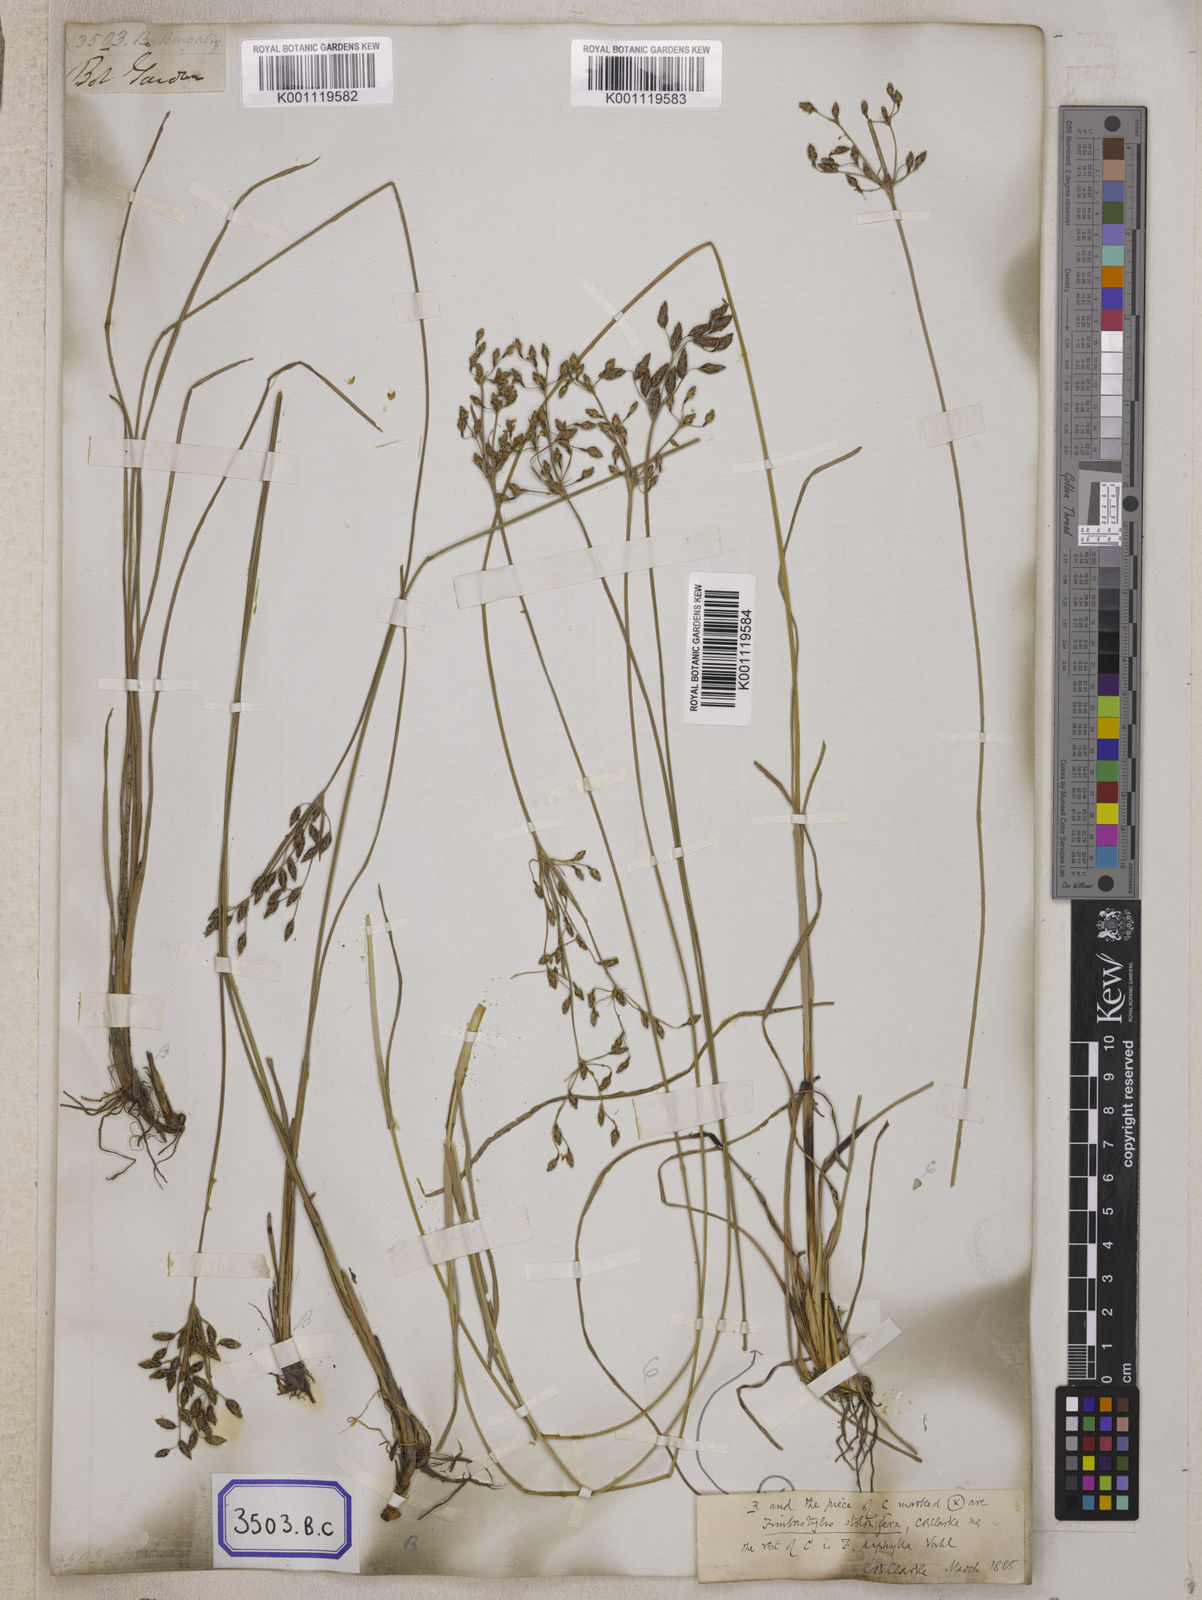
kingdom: Plantae
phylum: Tracheophyta
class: Liliopsida
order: Poales
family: Cyperaceae
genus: Fimbristylis
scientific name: Fimbristylis
